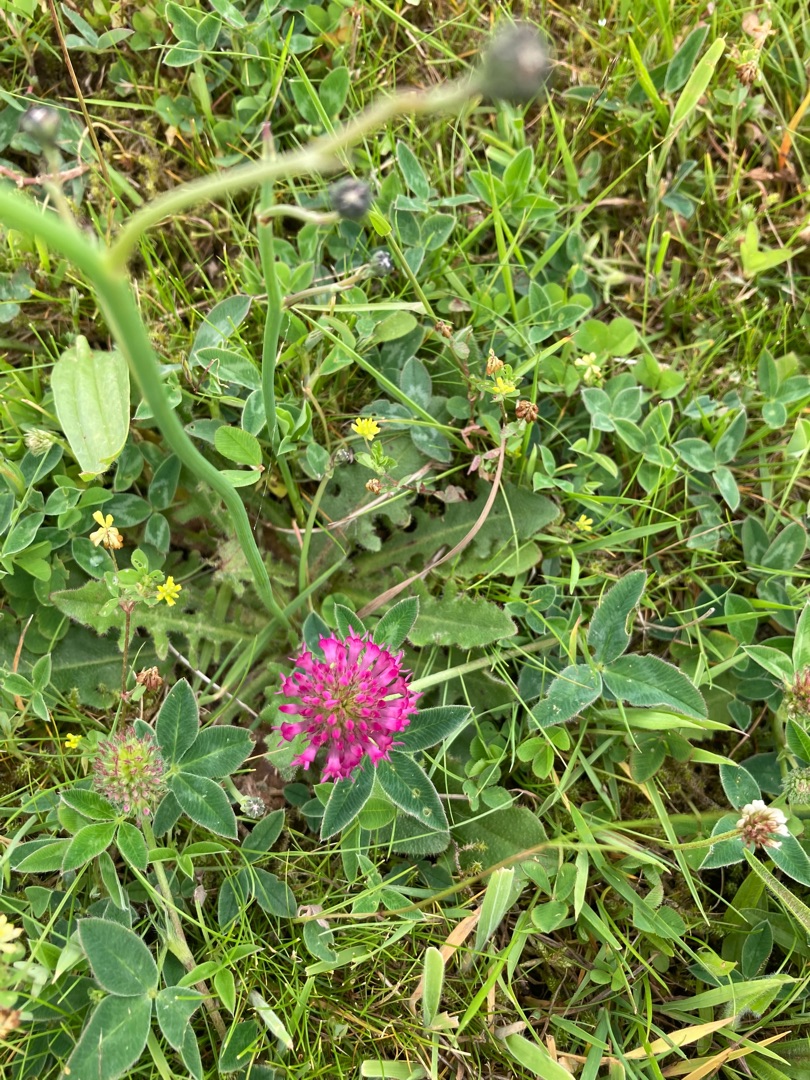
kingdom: Plantae
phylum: Tracheophyta
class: Magnoliopsida
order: Fabales
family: Fabaceae
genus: Trifolium
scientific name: Trifolium pratense
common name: Rød-kløver
